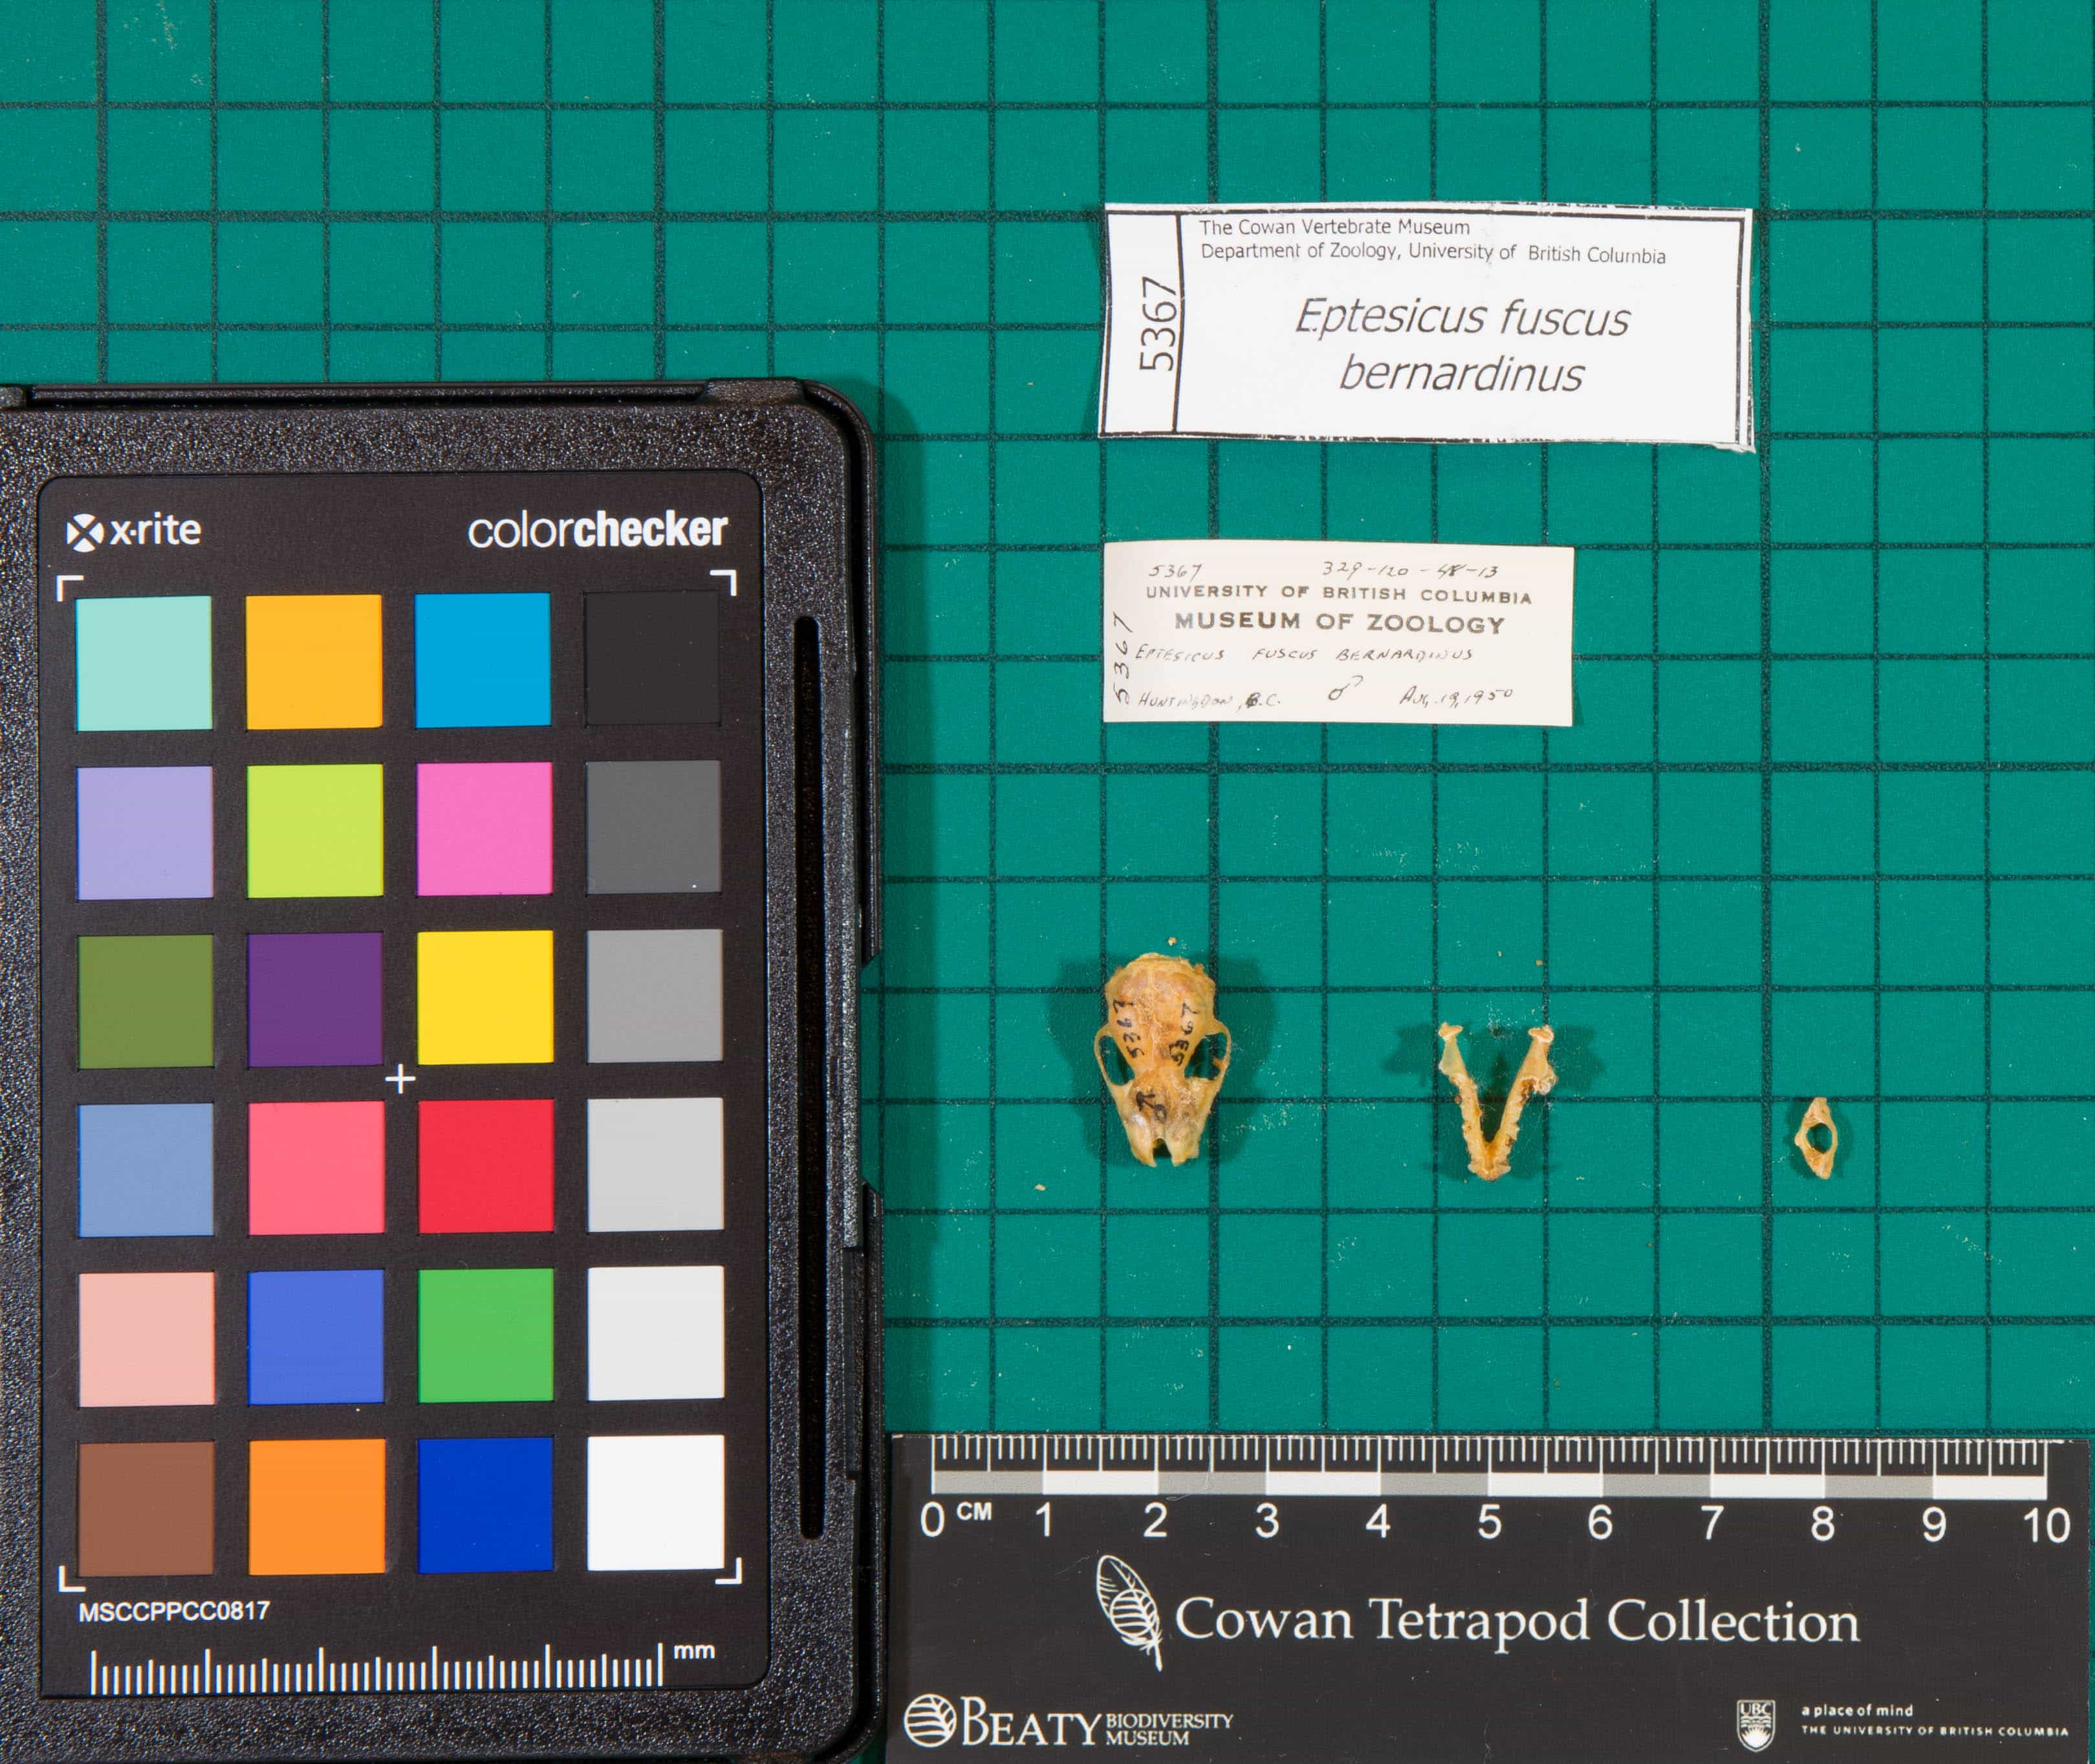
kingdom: Animalia
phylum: Chordata
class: Mammalia
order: Chiroptera
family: Vespertilionidae
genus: Eptesicus
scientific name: Eptesicus fuscus
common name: Big Brown Bat
